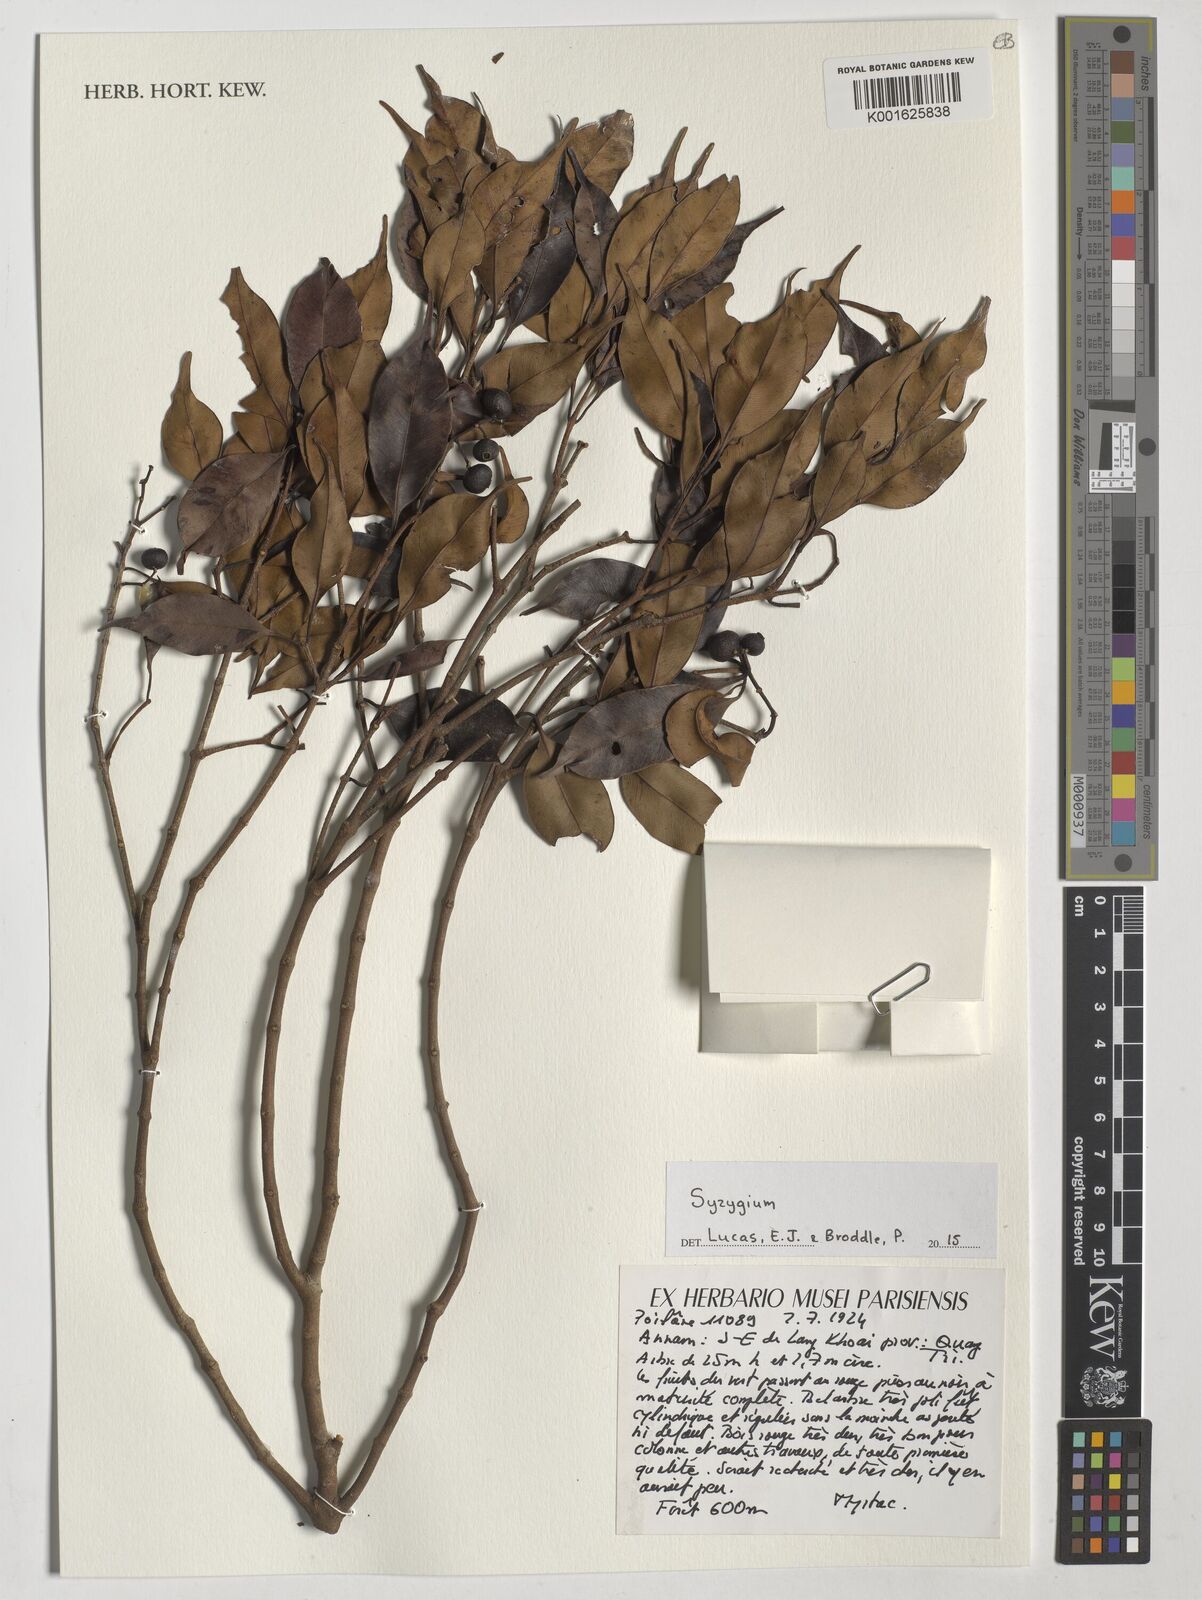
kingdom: Plantae
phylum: Tracheophyta
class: Magnoliopsida
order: Myrtales
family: Myrtaceae
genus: Syzygium
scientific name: Syzygium
